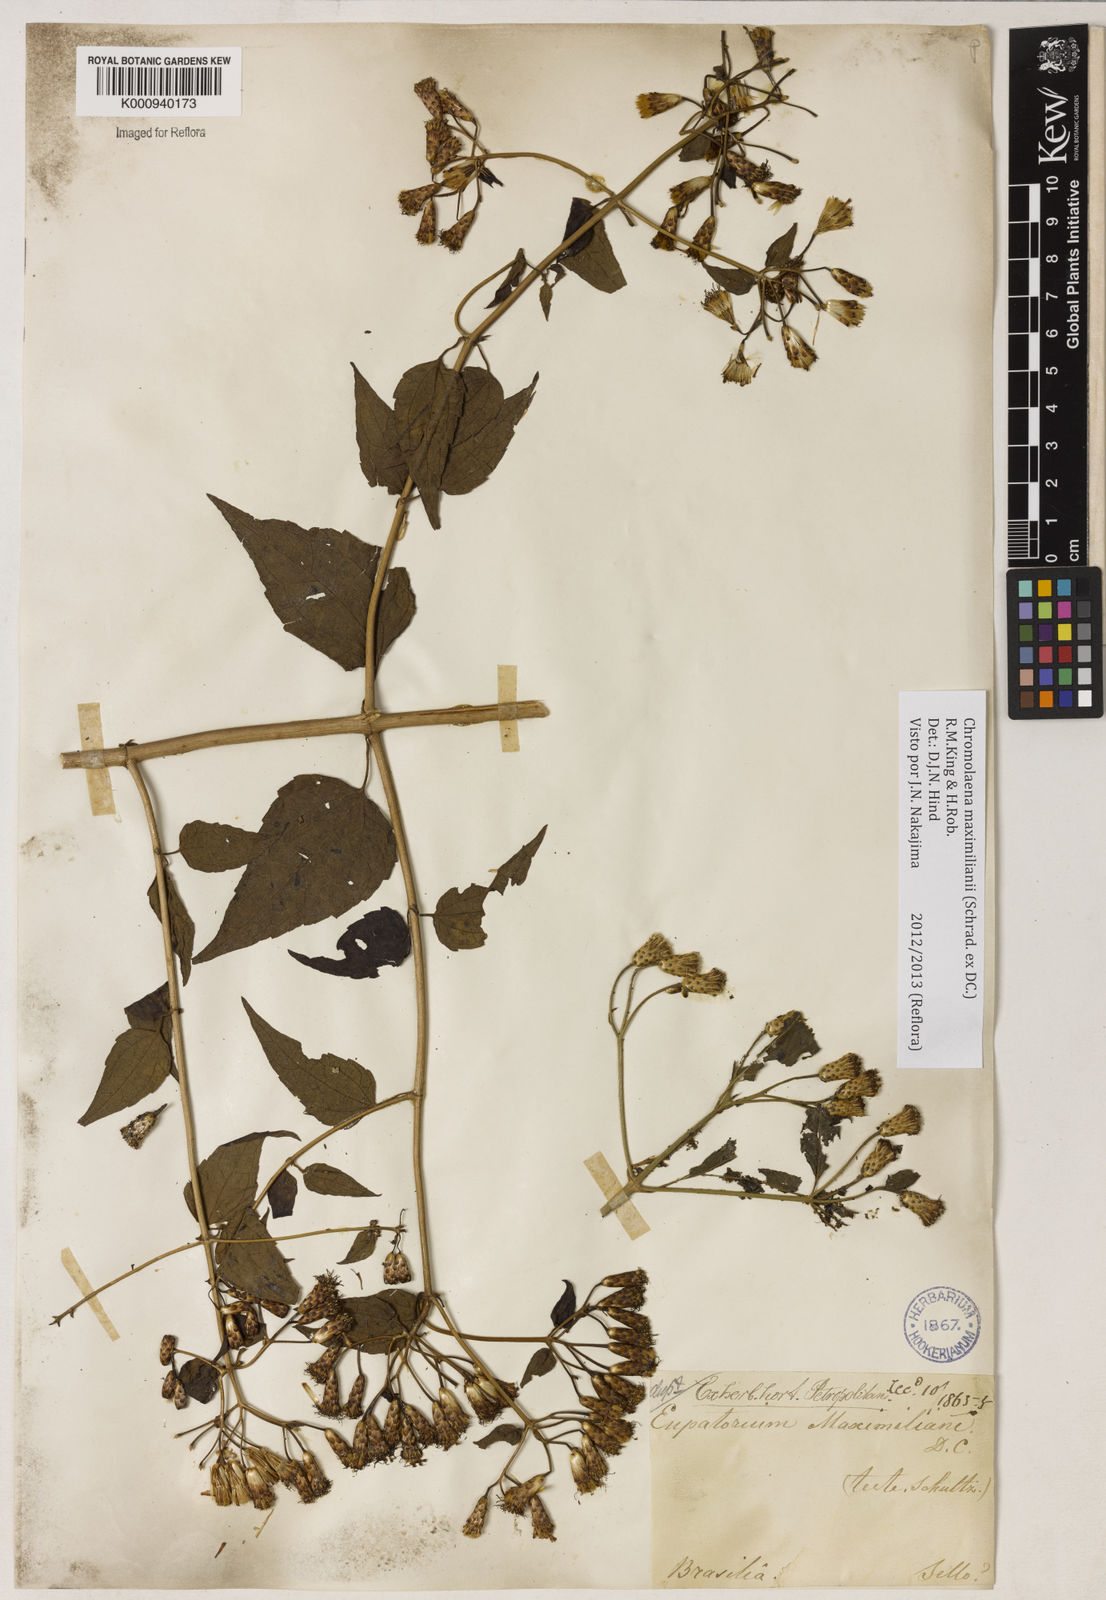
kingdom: Plantae
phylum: Tracheophyta
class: Magnoliopsida
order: Asterales
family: Asteraceae
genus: Chromolaena
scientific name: Chromolaena maximiliani
